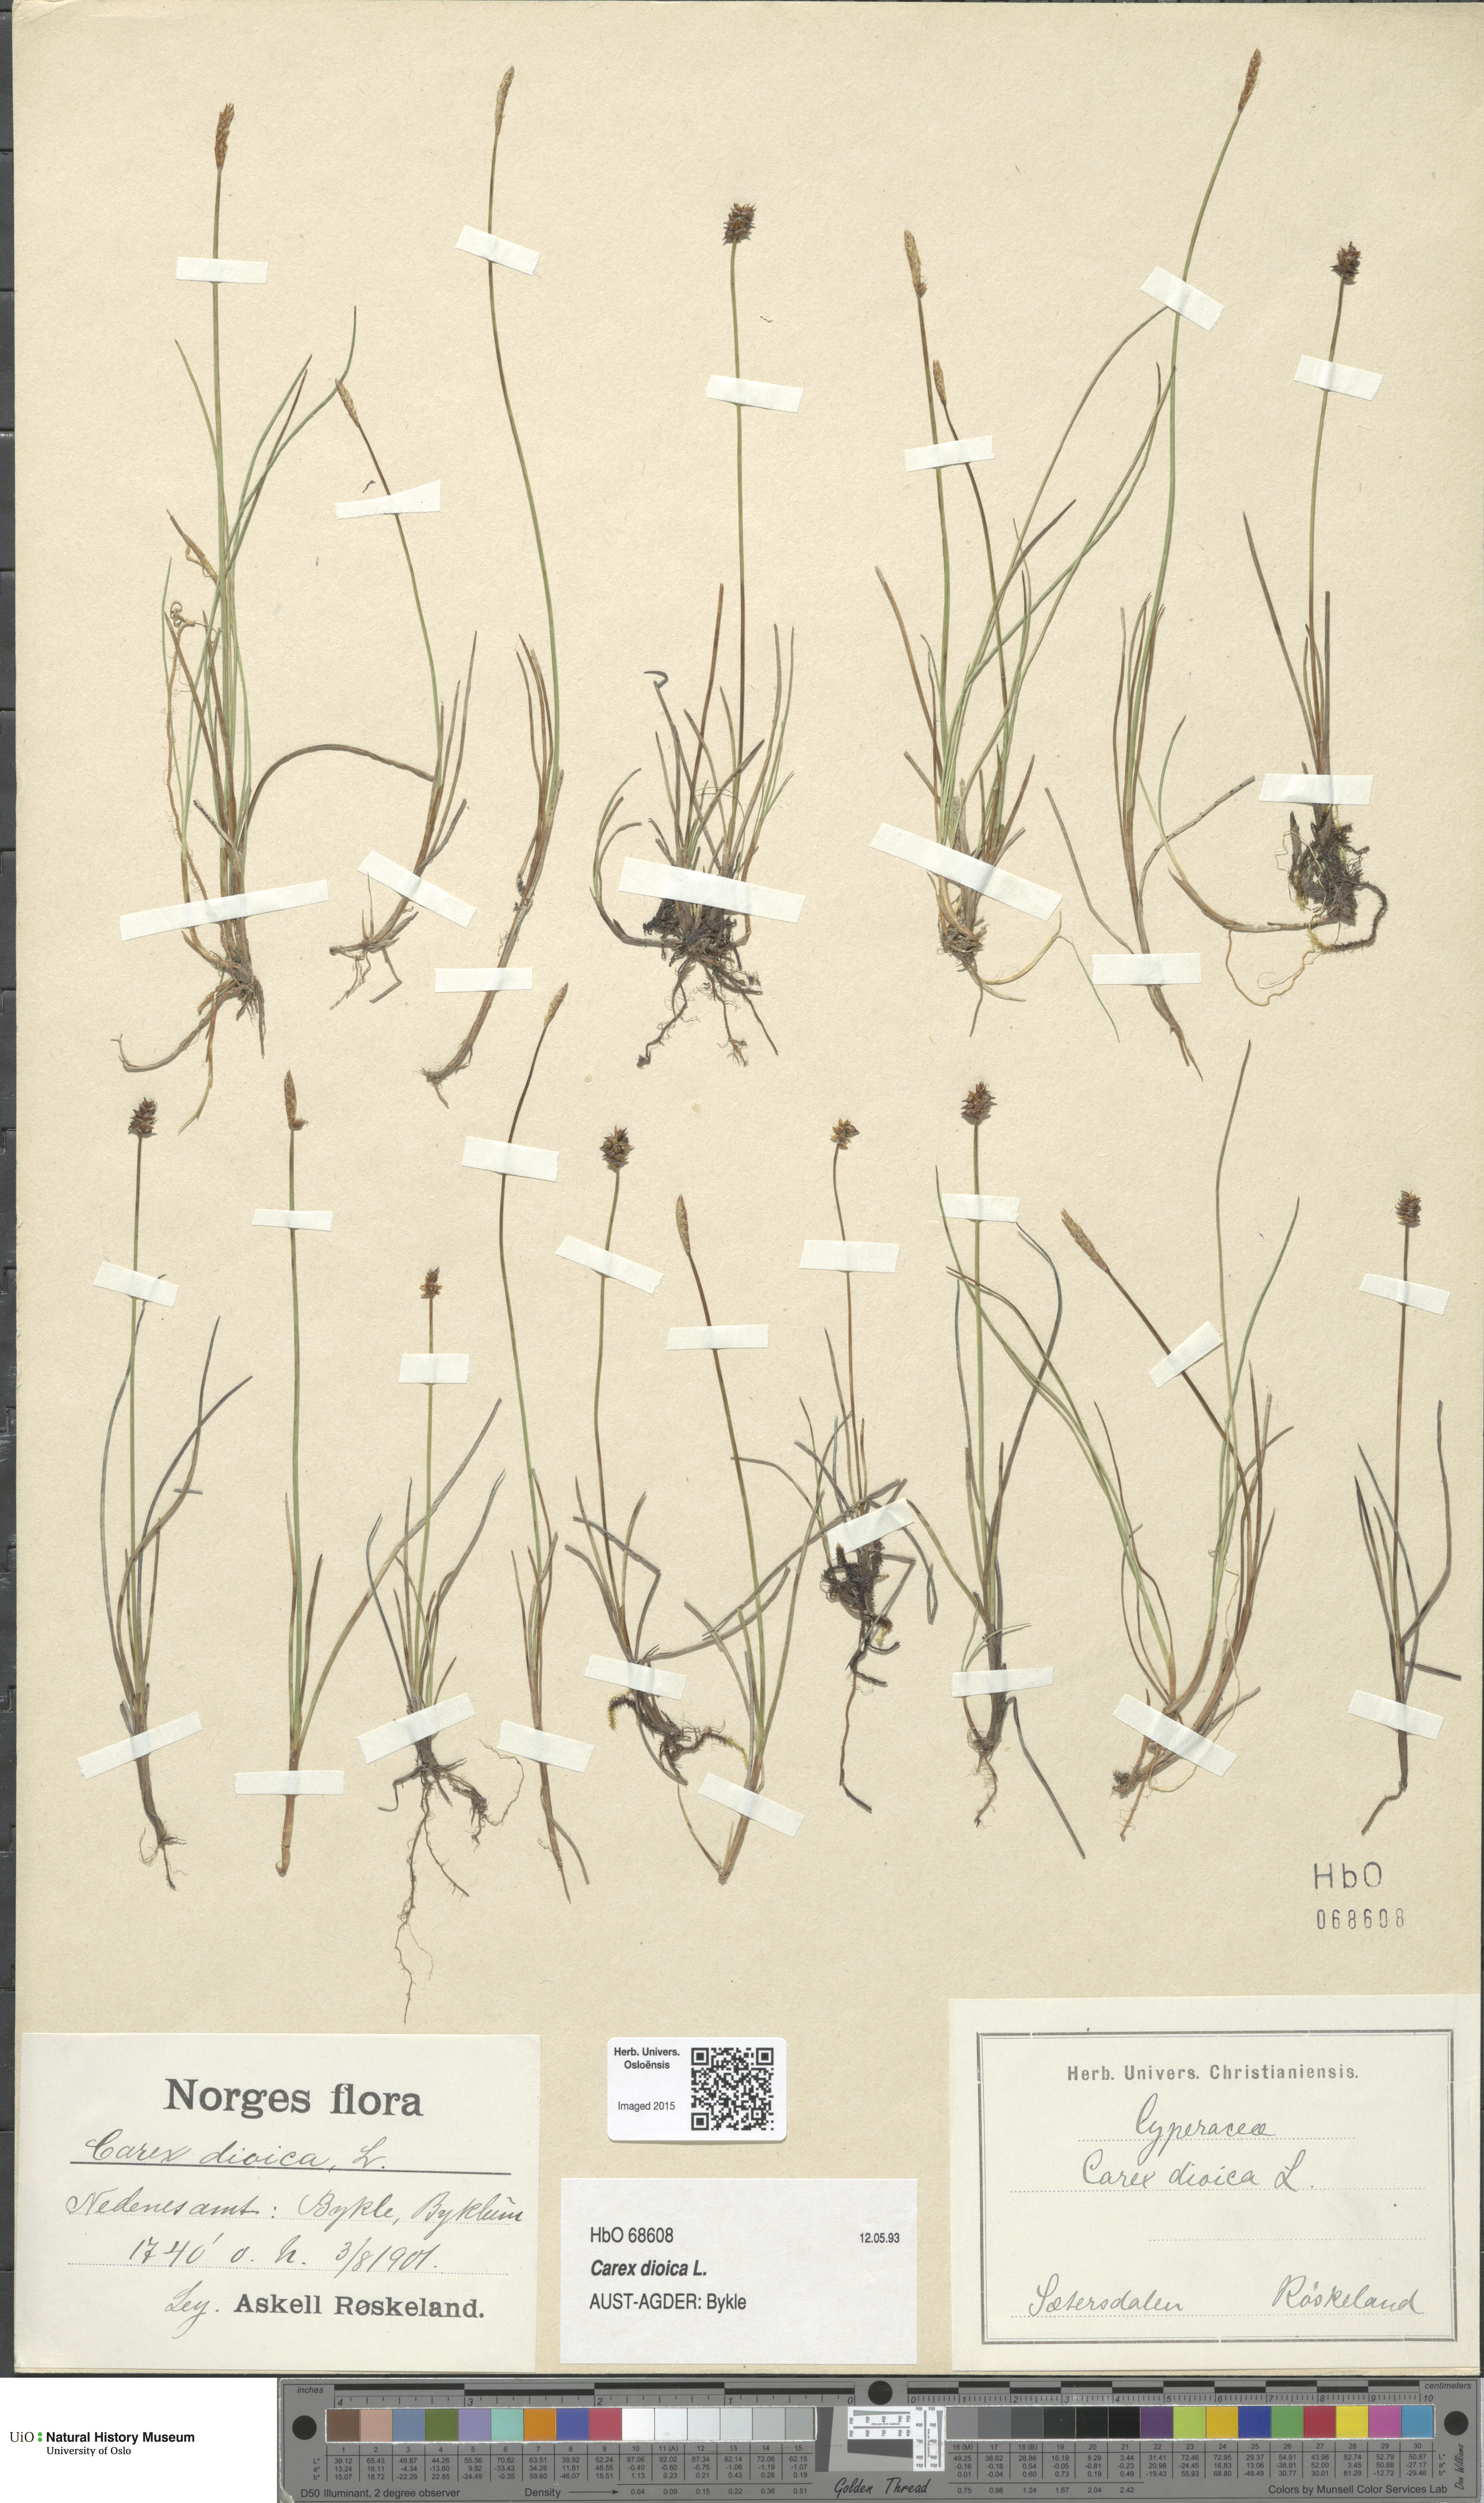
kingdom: Plantae
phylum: Tracheophyta
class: Liliopsida
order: Poales
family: Cyperaceae
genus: Carex
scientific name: Carex dioica
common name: Dioecious sedge
